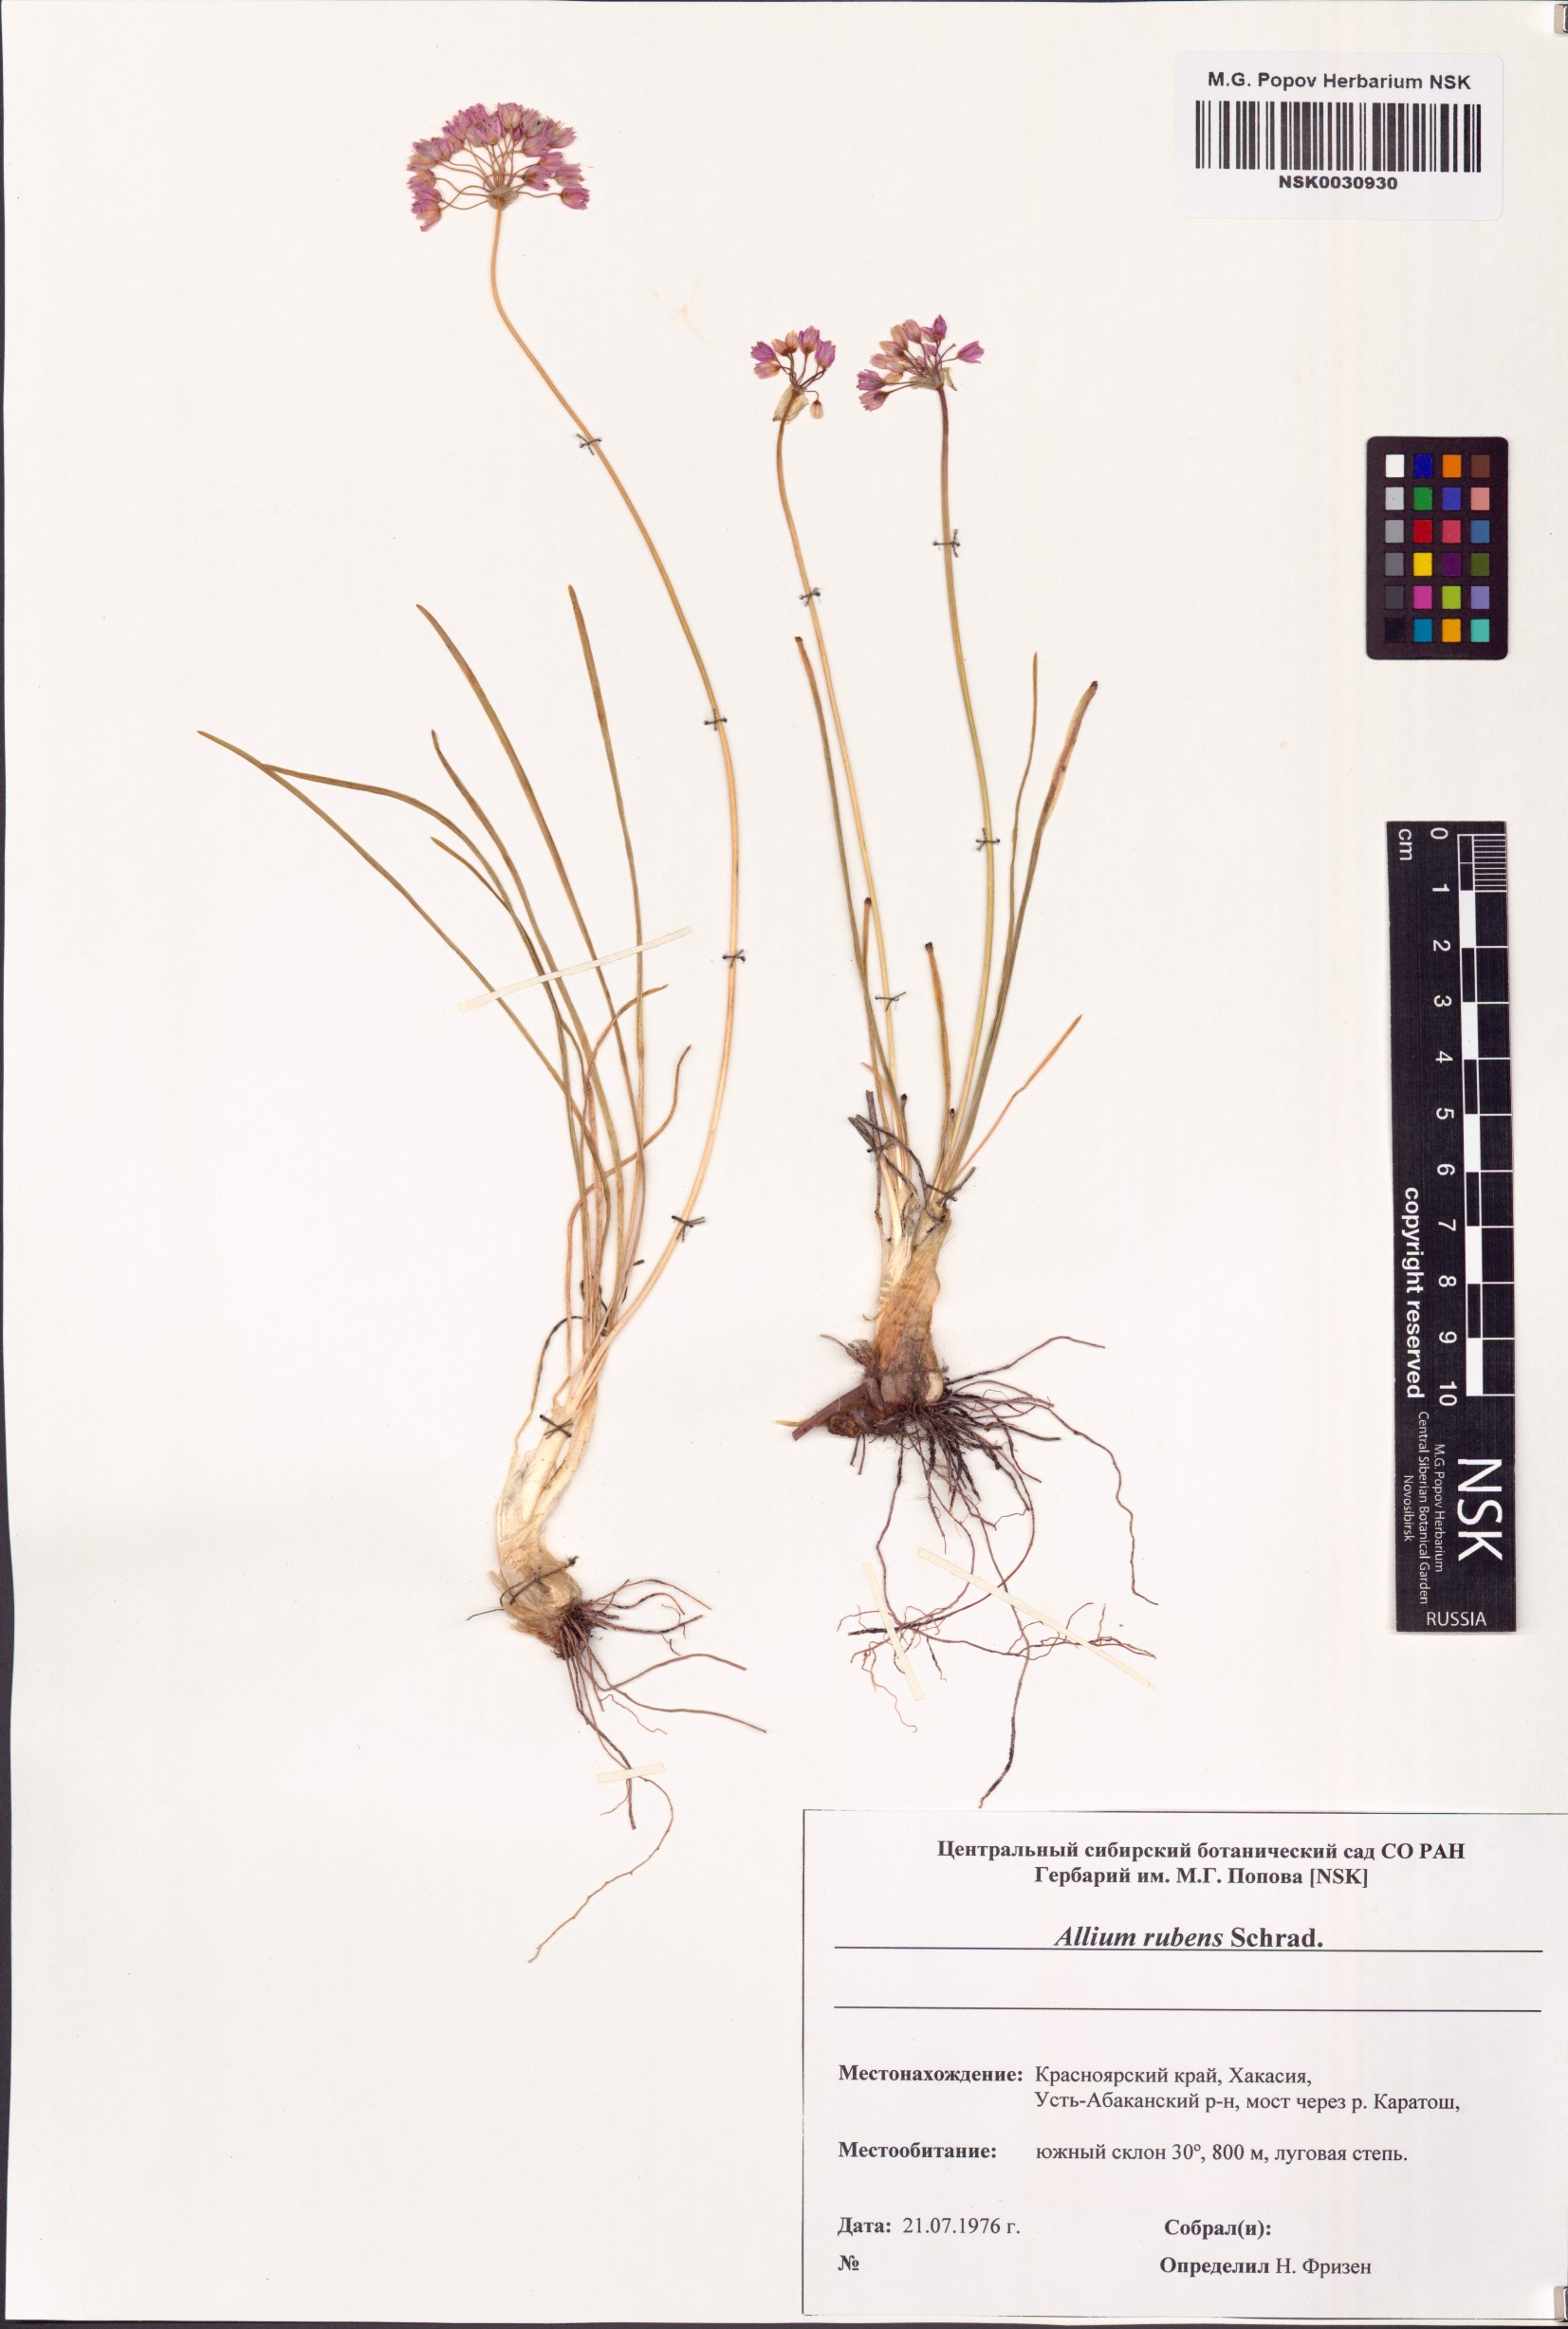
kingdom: Plantae
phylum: Tracheophyta
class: Liliopsida
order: Asparagales
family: Amaryllidaceae
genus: Allium
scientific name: Allium rubens
